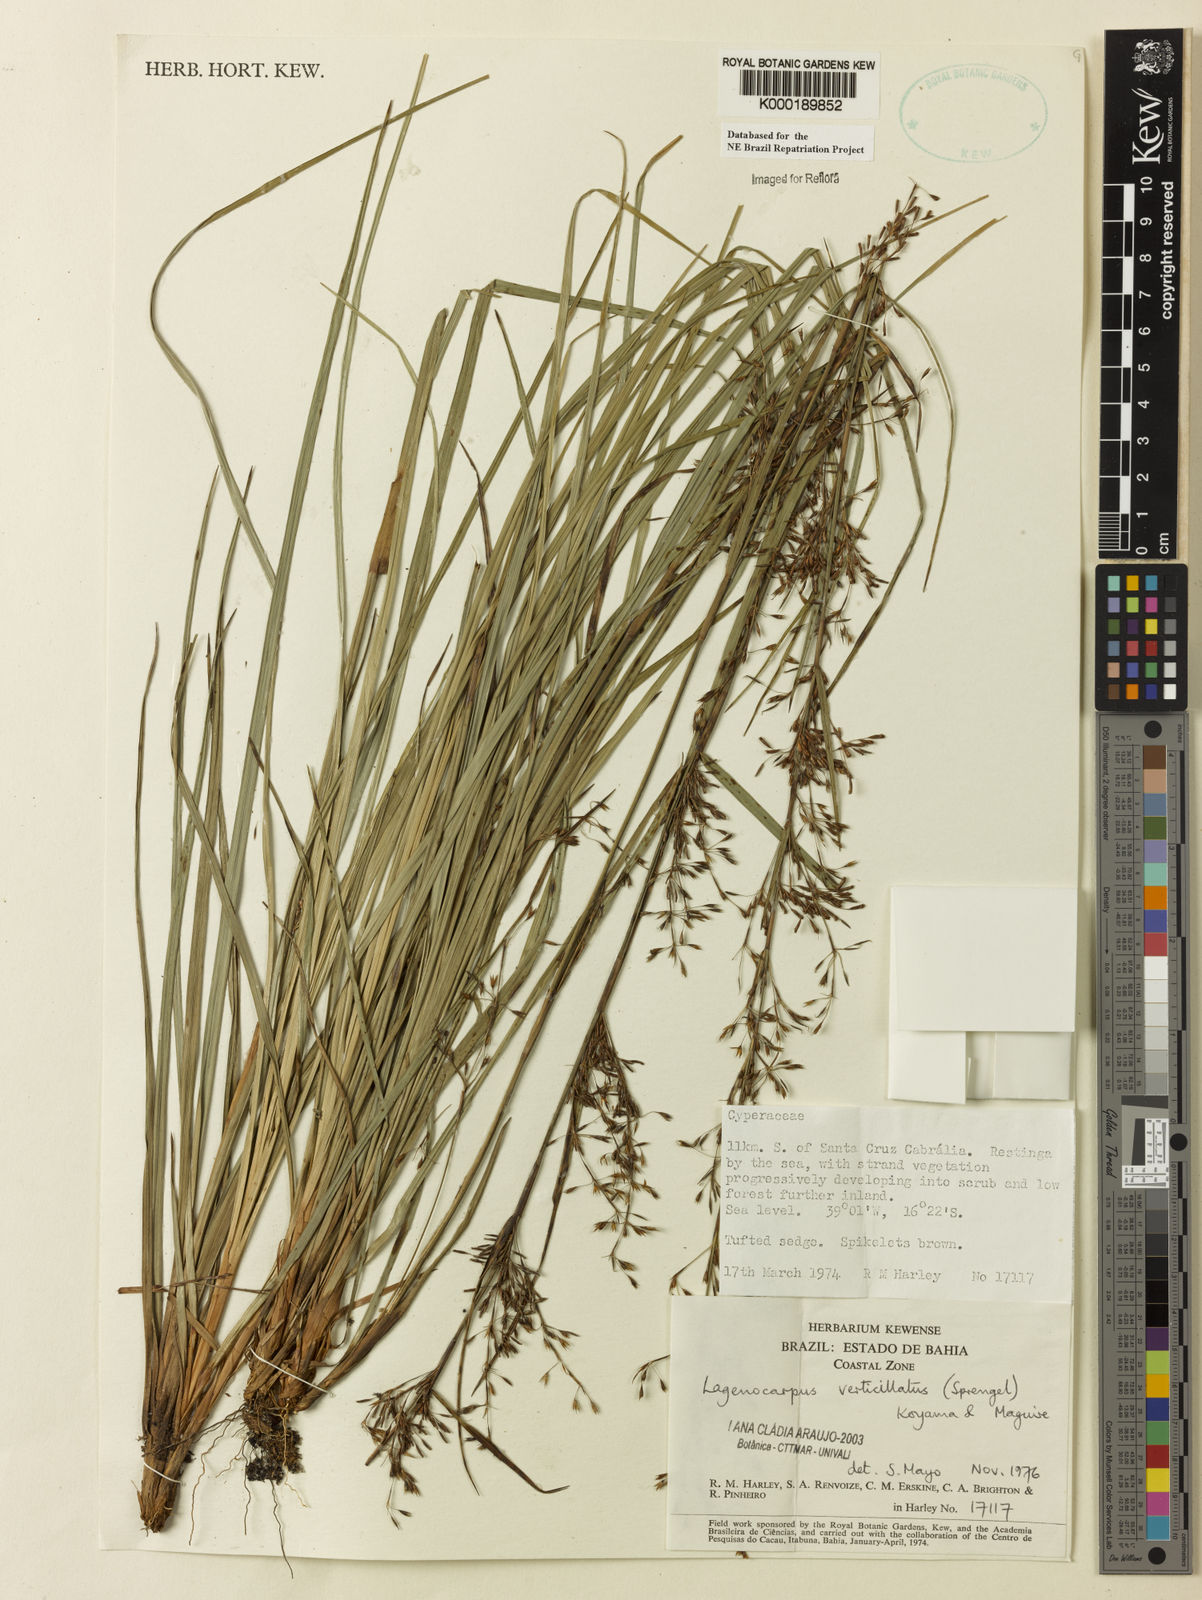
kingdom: Plantae
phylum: Tracheophyta
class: Liliopsida
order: Poales
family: Cyperaceae
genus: Cryptangium
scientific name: Cryptangium verticillatum
